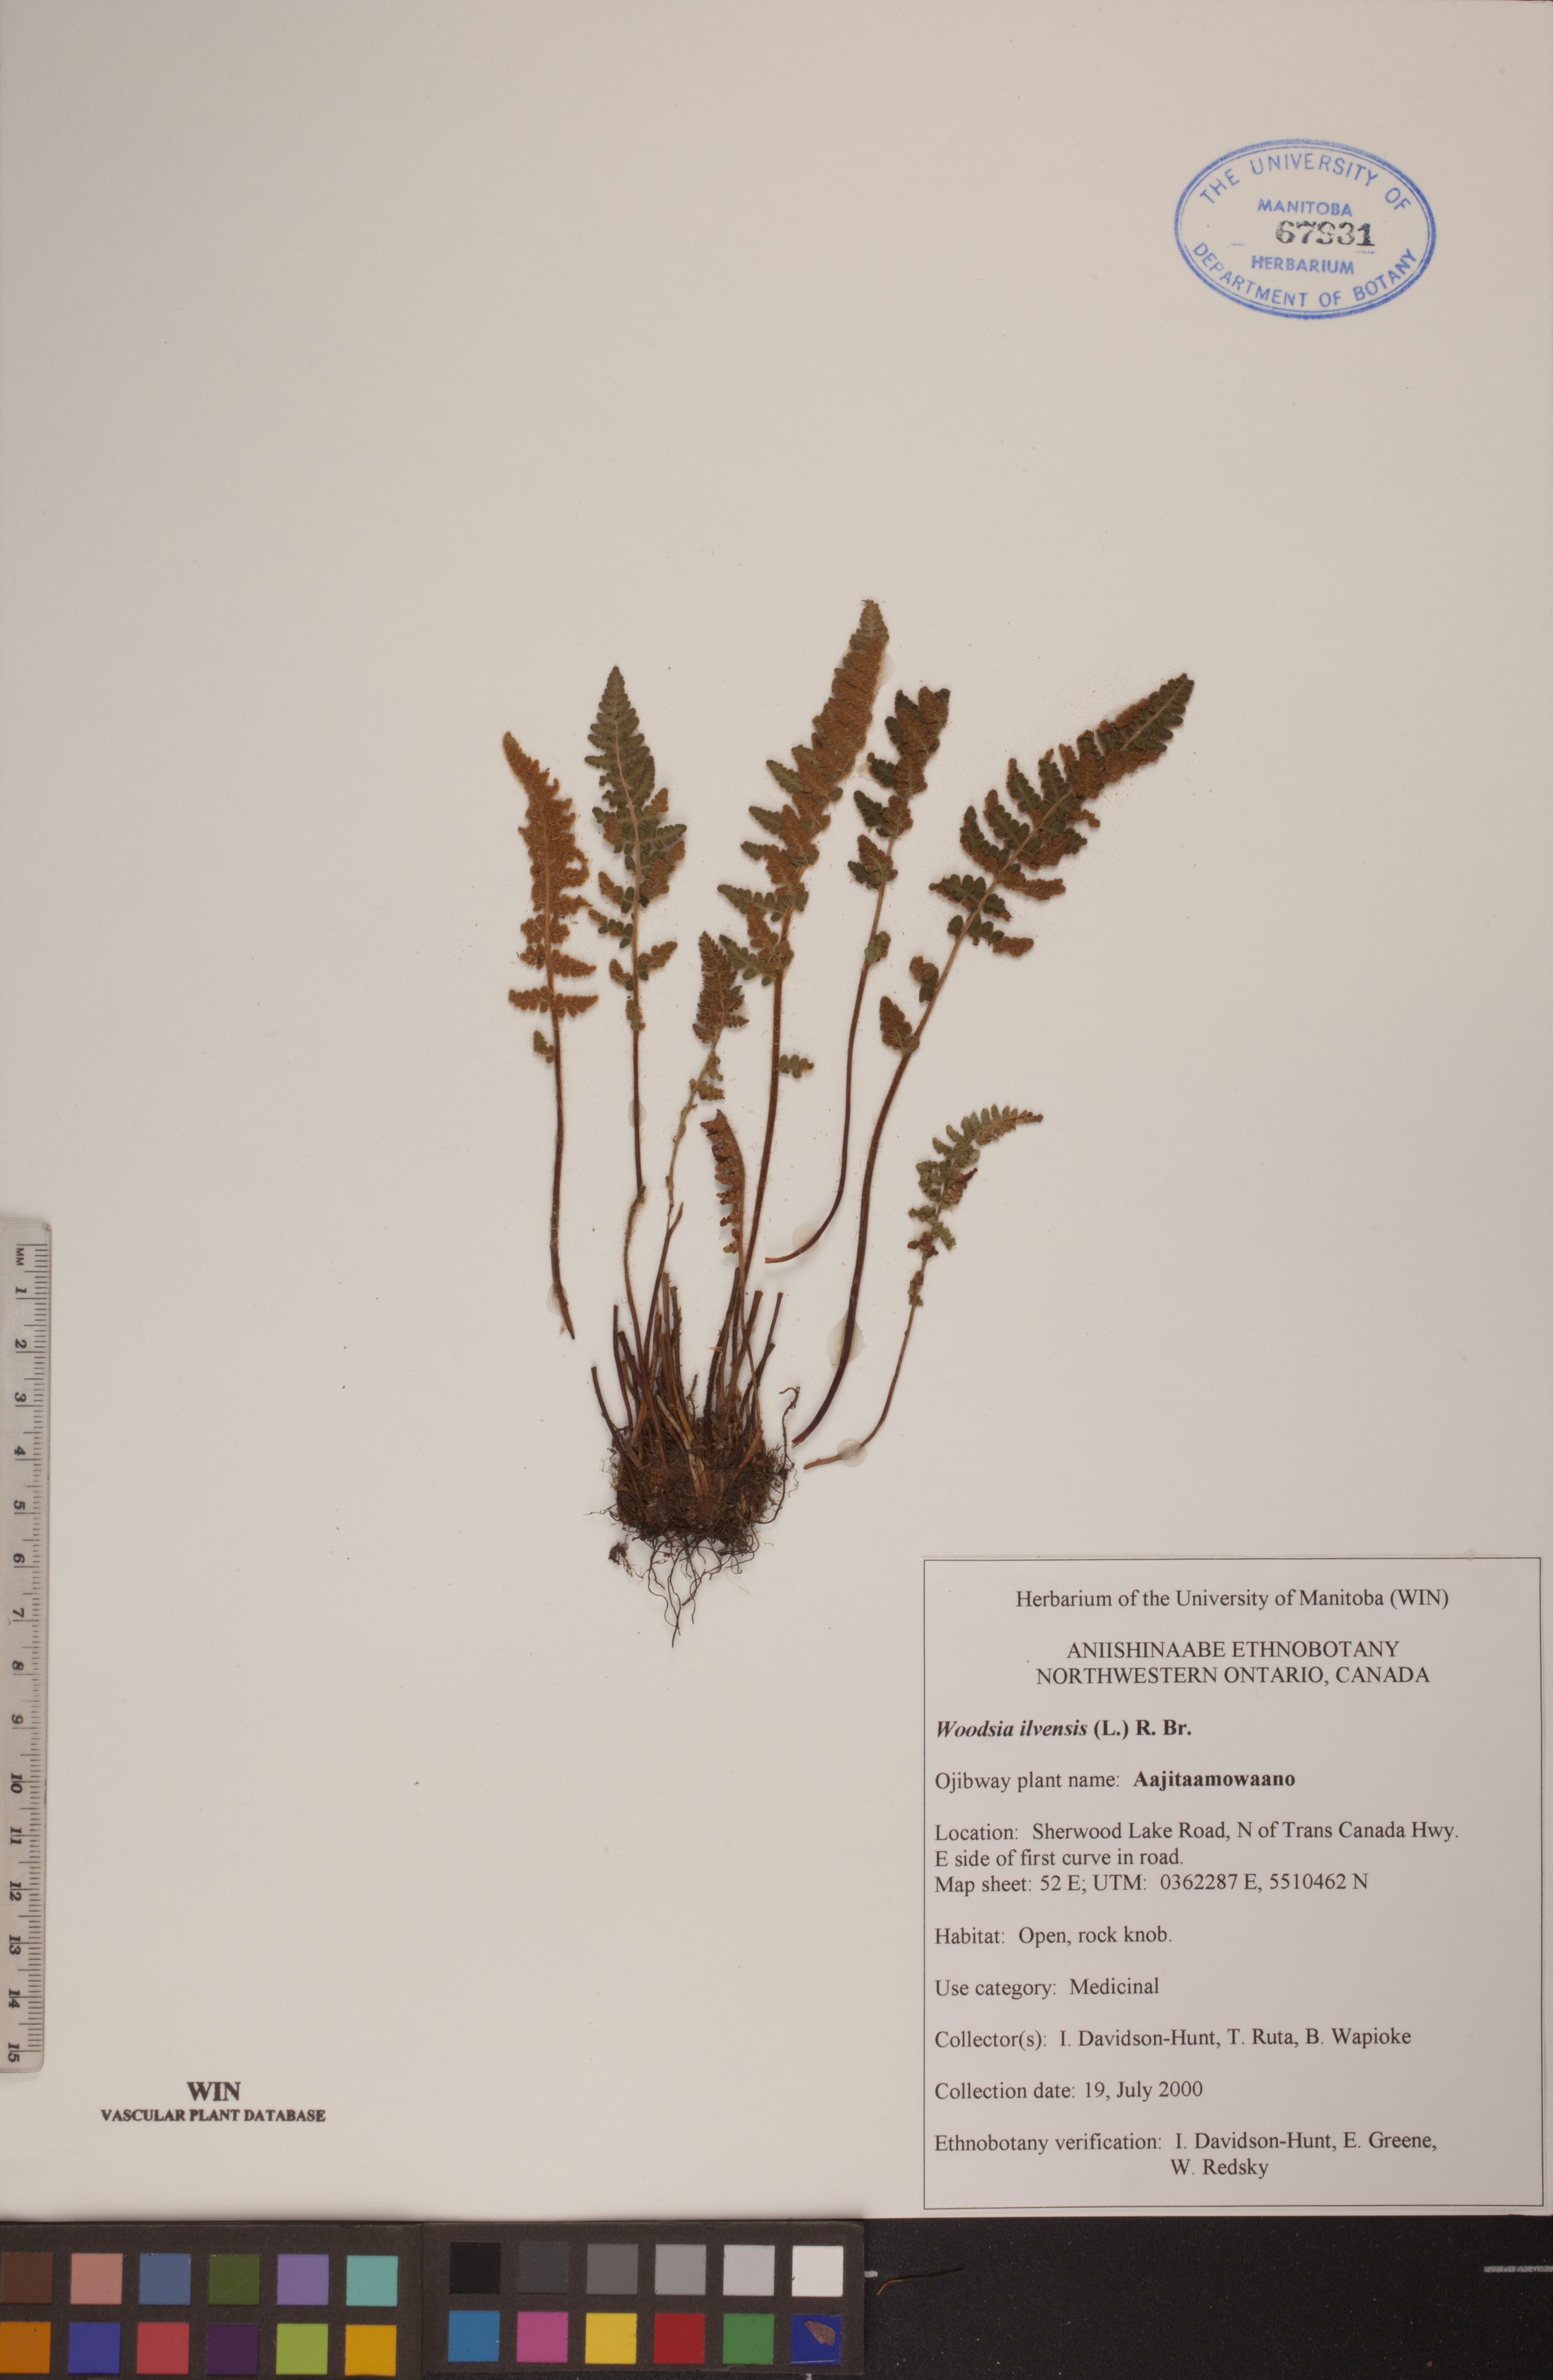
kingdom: Plantae
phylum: Tracheophyta
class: Polypodiopsida
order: Polypodiales
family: Woodsiaceae
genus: Woodsia
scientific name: Woodsia ilvensis
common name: Fragrant woodsia
